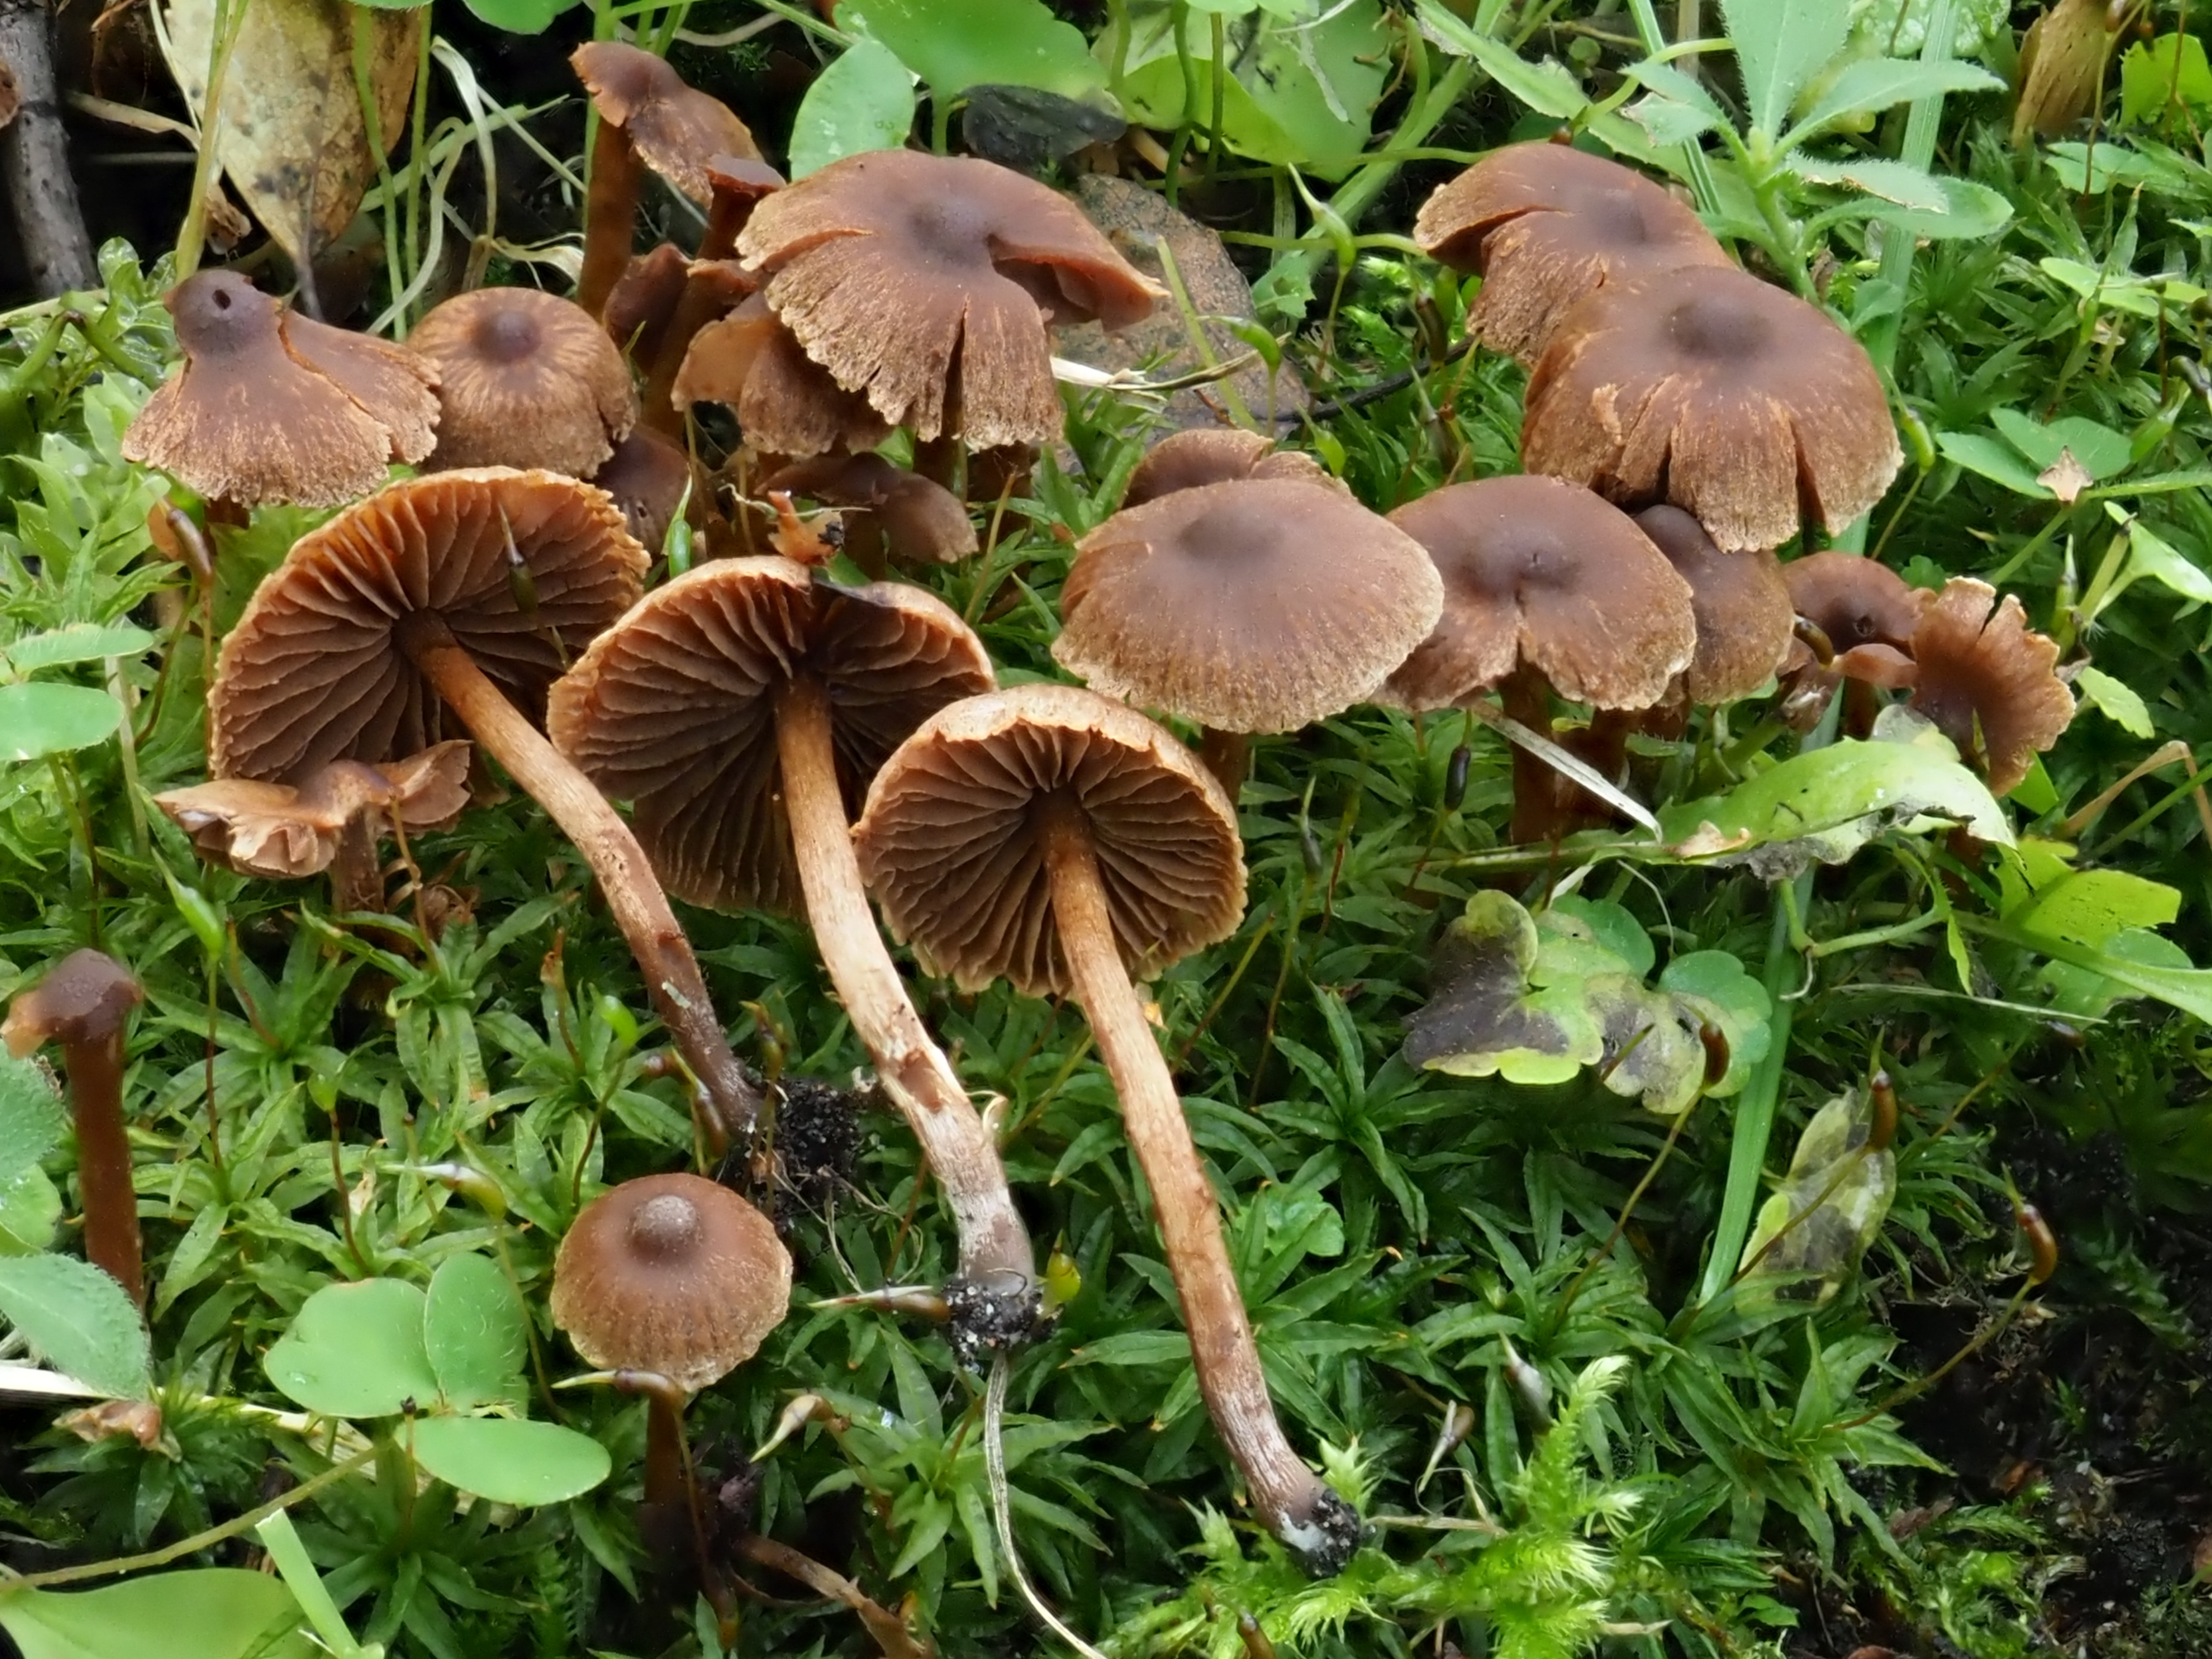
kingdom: Fungi
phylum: Basidiomycota
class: Agaricomycetes
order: Agaricales
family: Cortinariaceae
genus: Cortinarius
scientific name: Cortinarius decipiens
